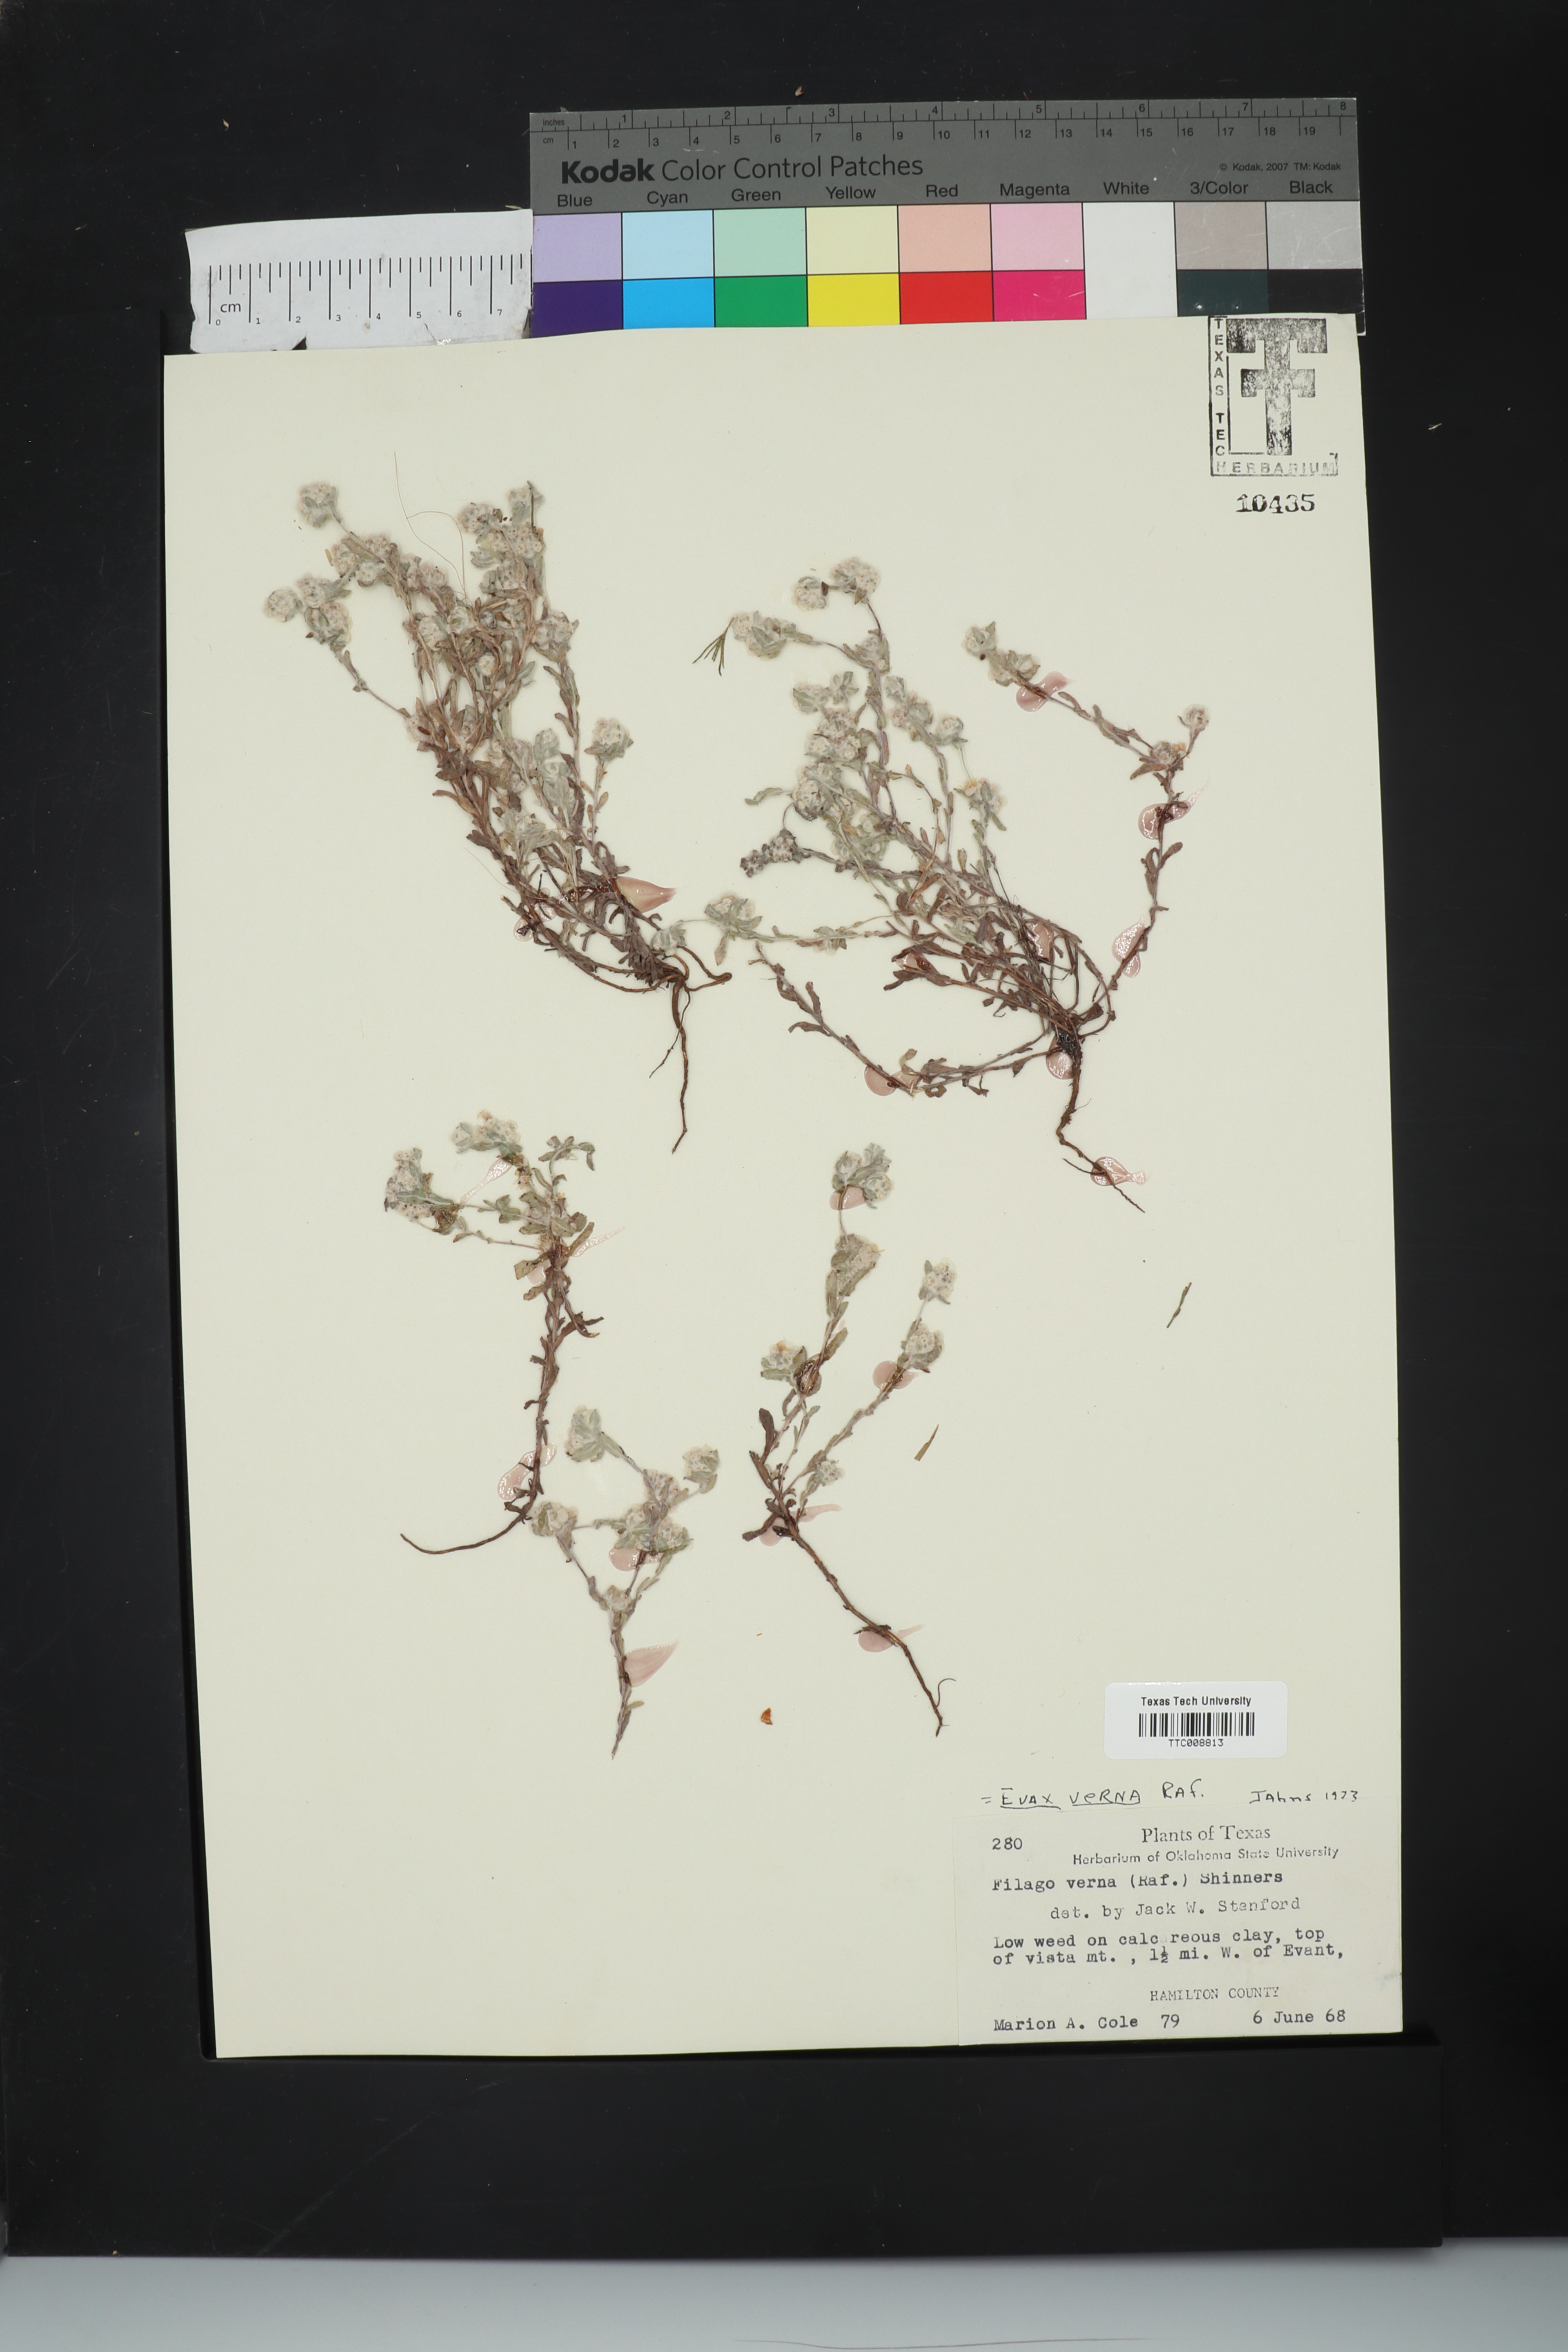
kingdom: Plantae
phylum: Tracheophyta
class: Magnoliopsida
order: Asterales
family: Asteraceae
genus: Diaperia
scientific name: Diaperia verna
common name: Many-stem rabbit-tobacco
